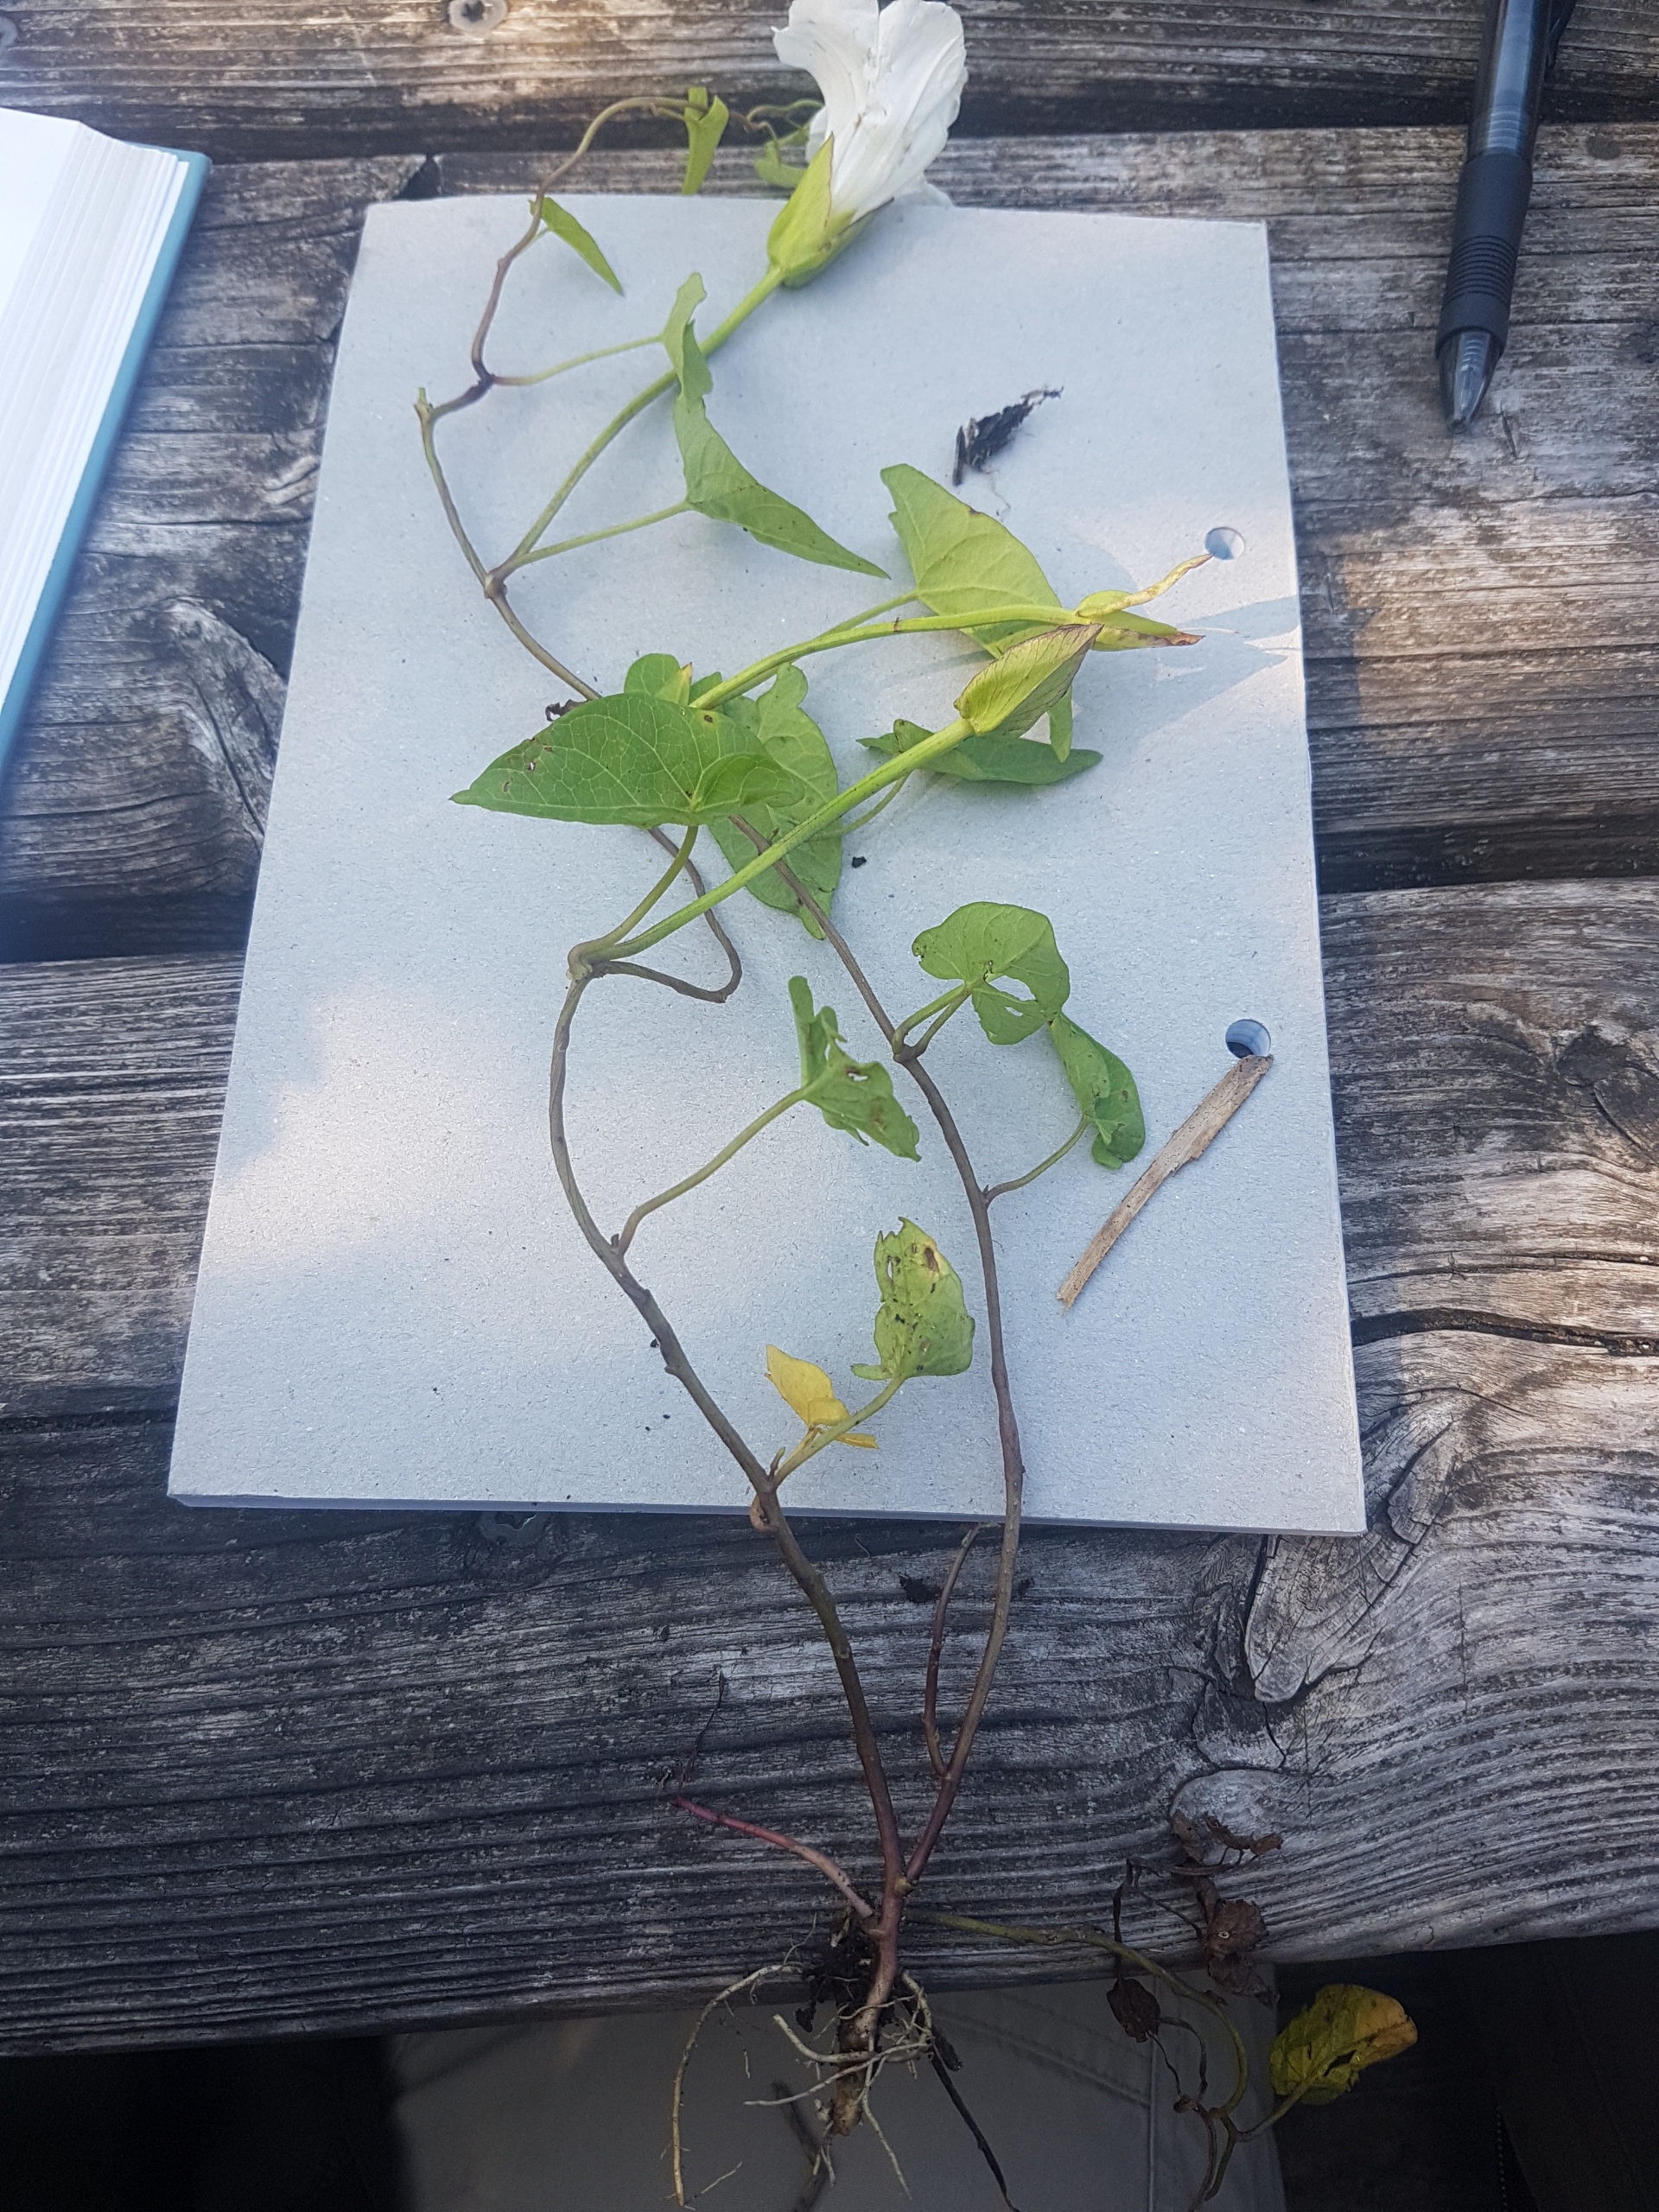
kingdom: Plantae
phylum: Tracheophyta
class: Magnoliopsida
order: Solanales
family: Convolvulaceae
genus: Calystegia
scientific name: Calystegia sepium
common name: Gærde-snerle
